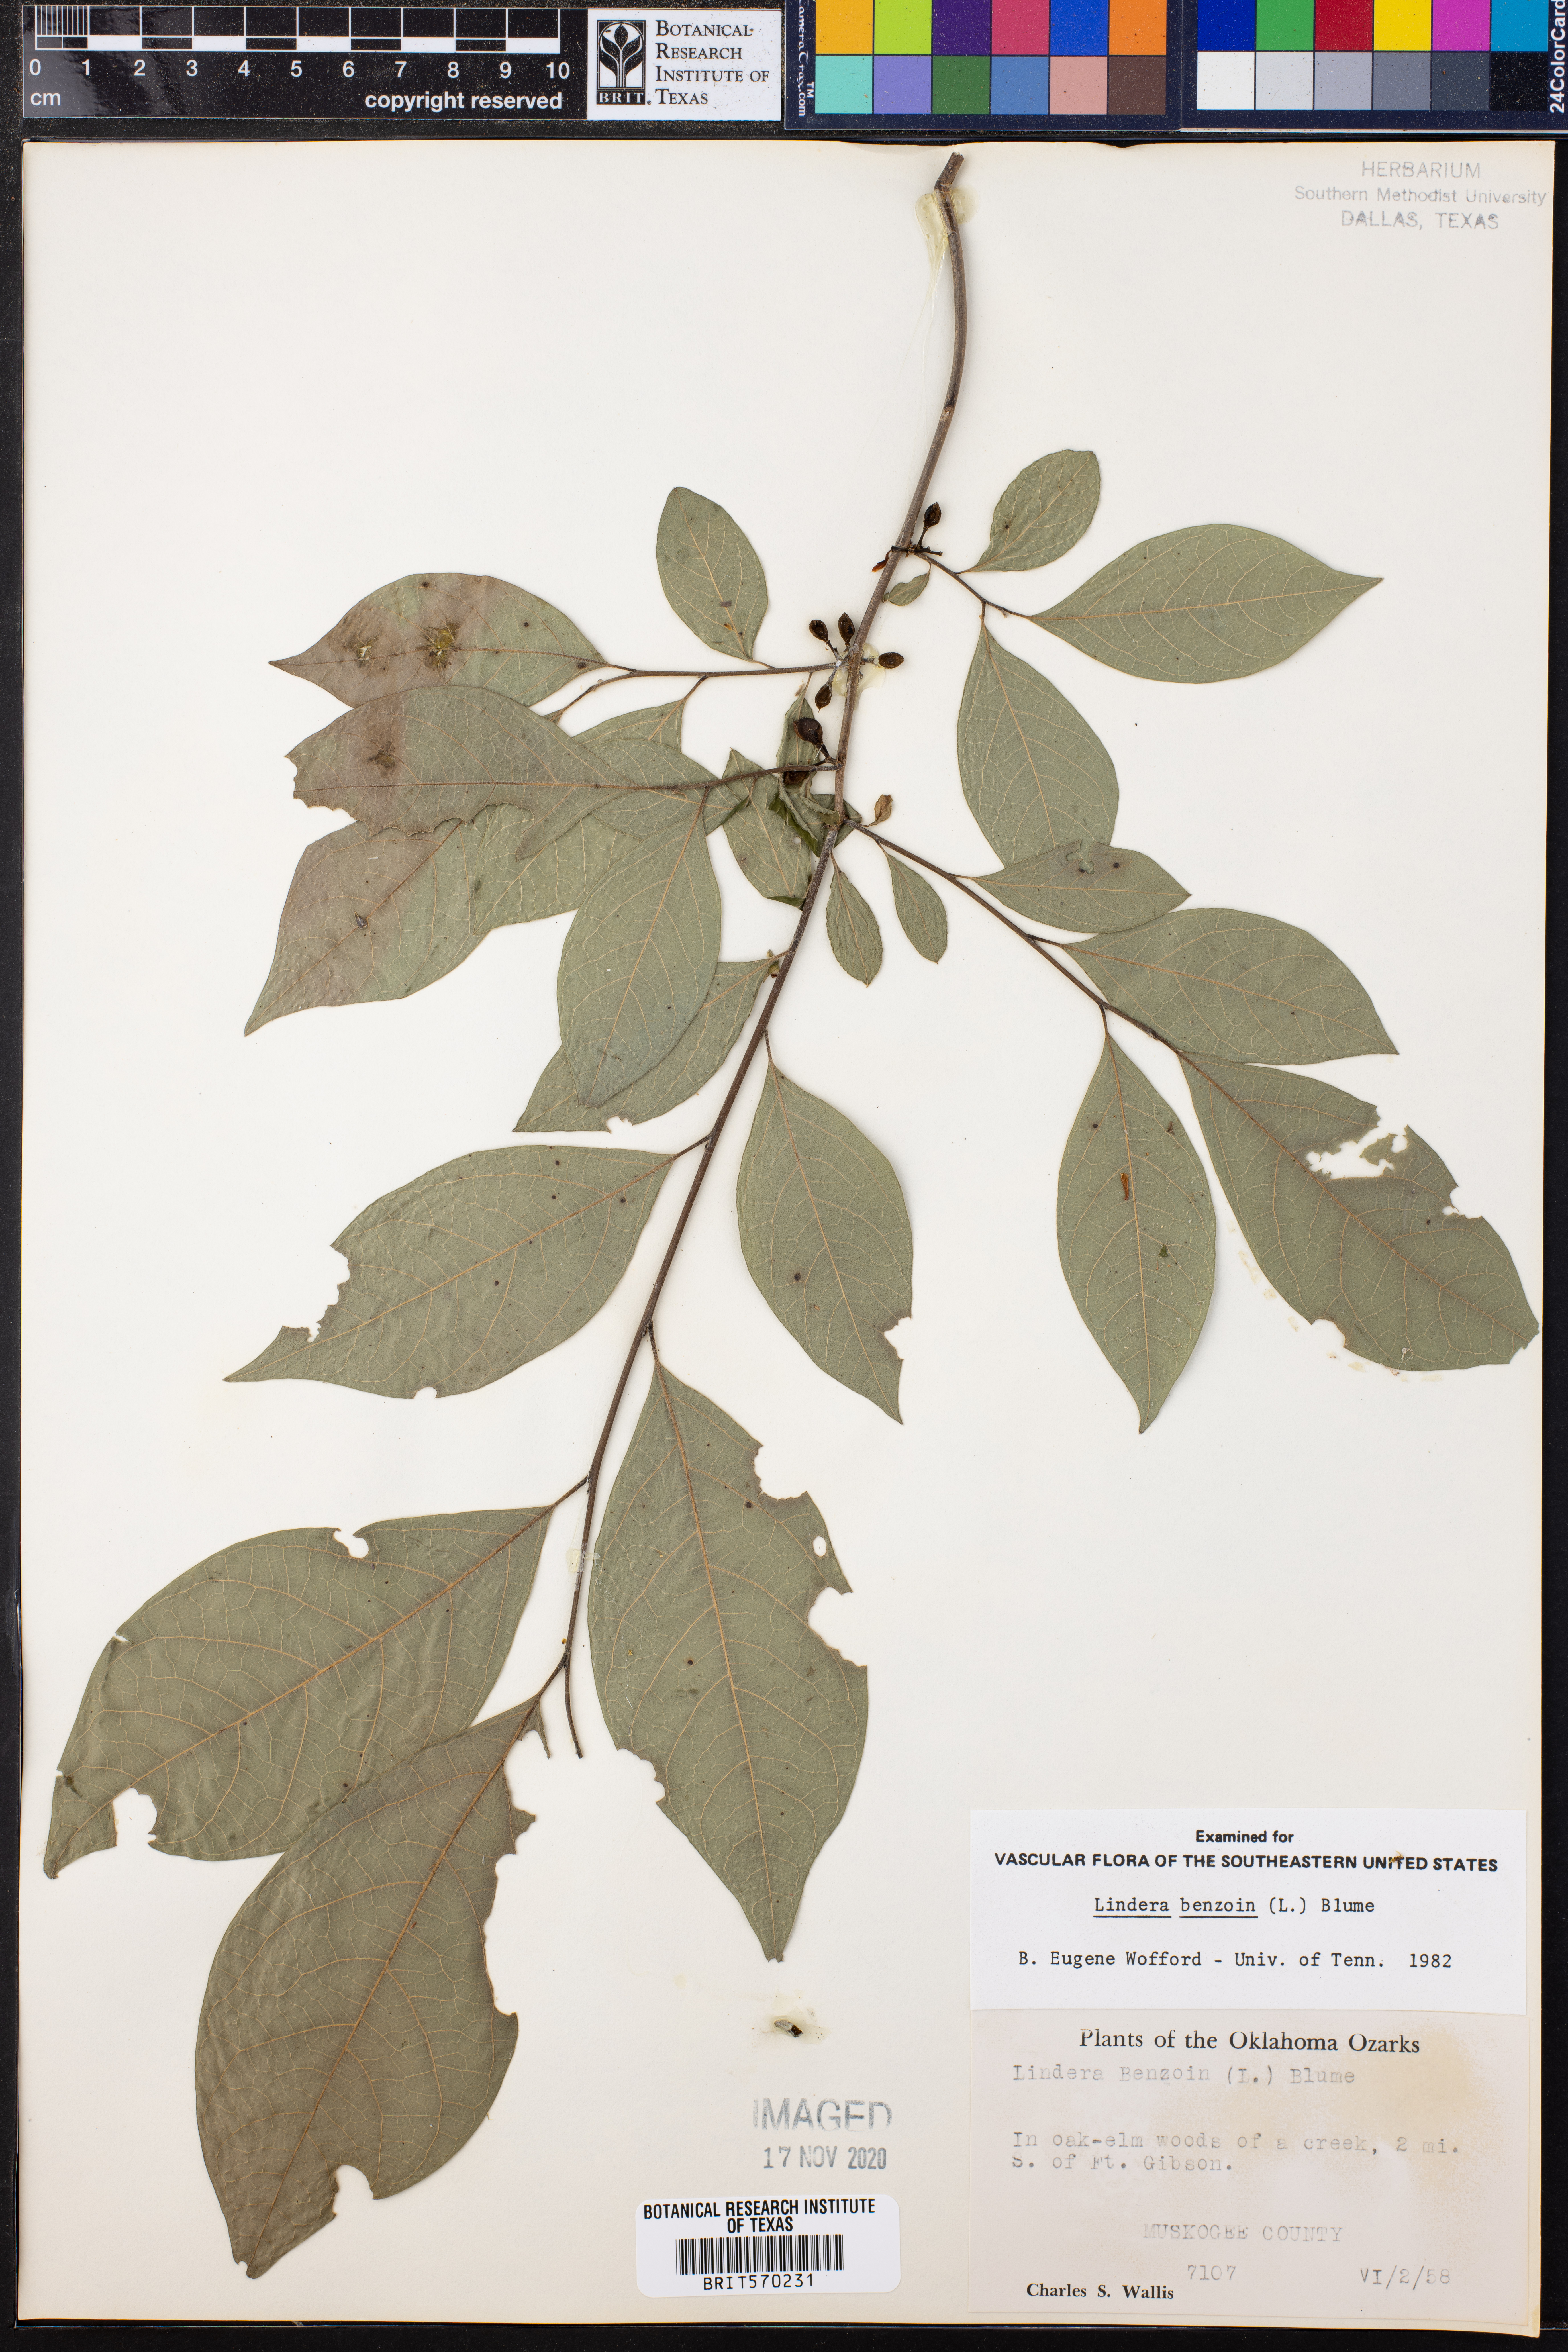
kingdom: Plantae
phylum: Tracheophyta
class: Magnoliopsida
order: Laurales
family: Lauraceae
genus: Lindera
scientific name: Lindera benzoin
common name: Spicebush
